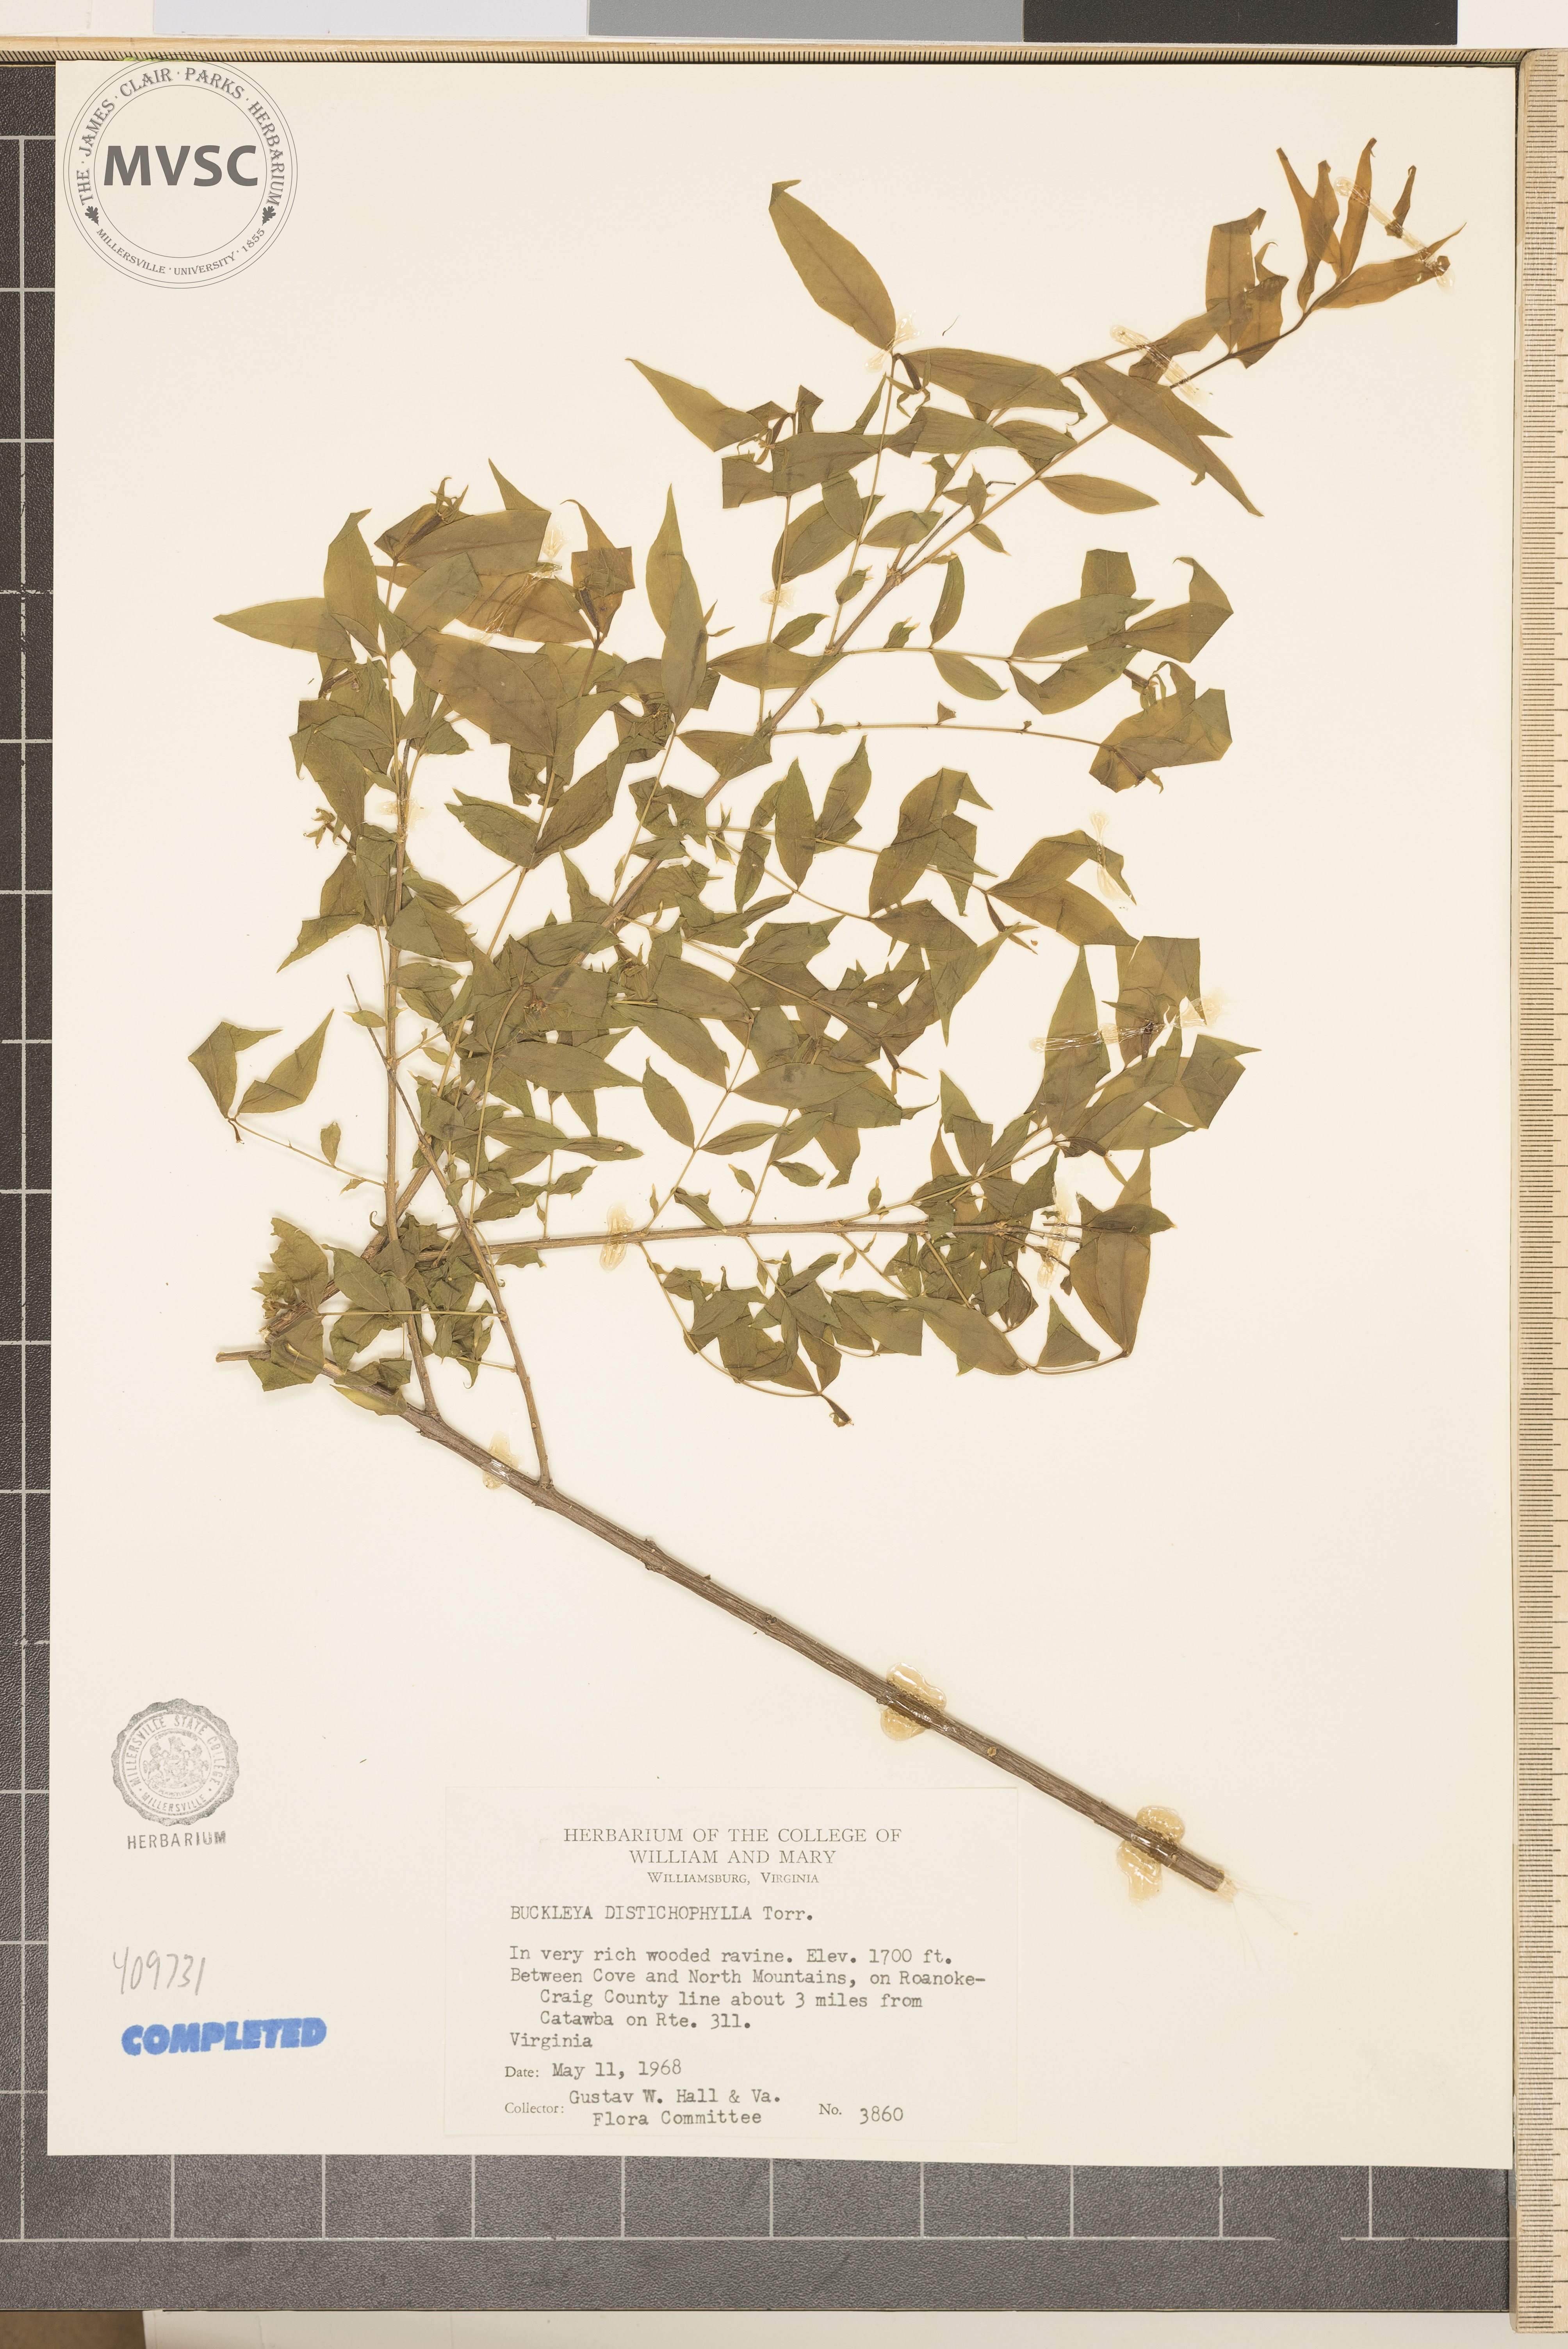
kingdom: Plantae
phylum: Tracheophyta
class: Magnoliopsida
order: Santalales
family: Thesiaceae
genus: Buckleya
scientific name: Buckleya distichophylla
